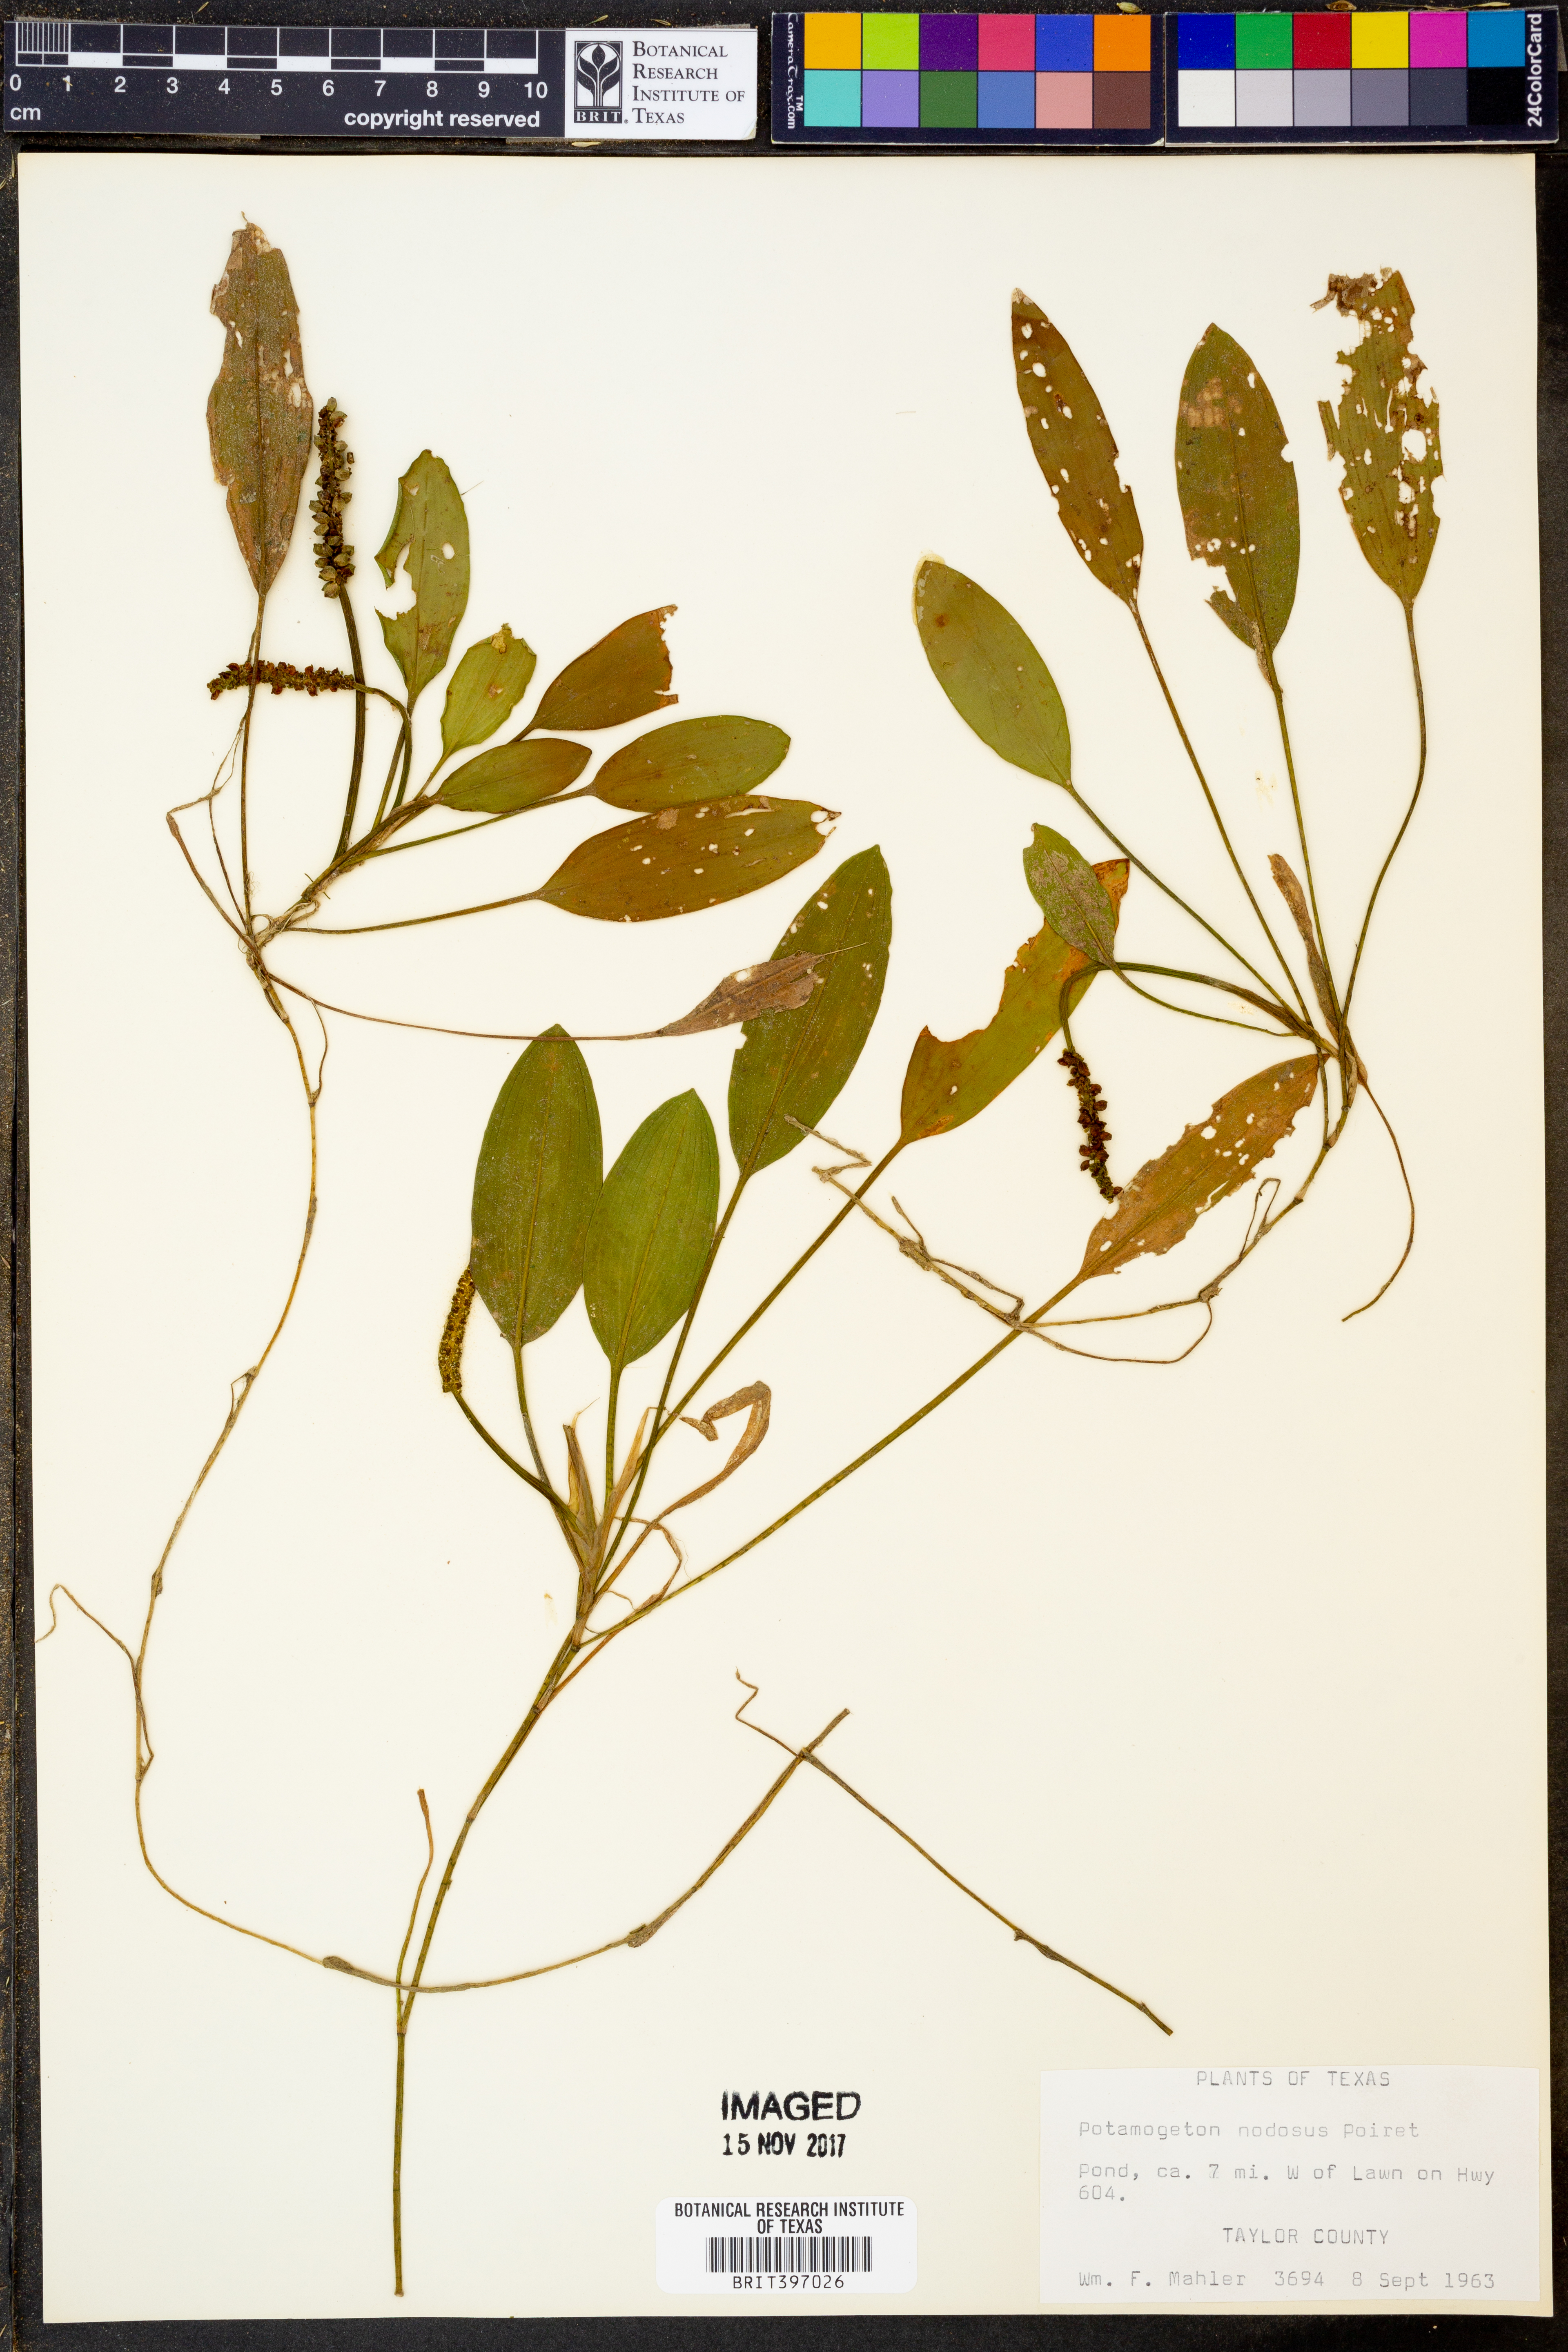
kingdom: Plantae
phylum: Tracheophyta
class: Liliopsida
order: Alismatales
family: Potamogetonaceae
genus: Potamogeton
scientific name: Potamogeton nodosus
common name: Loddon pondweed
